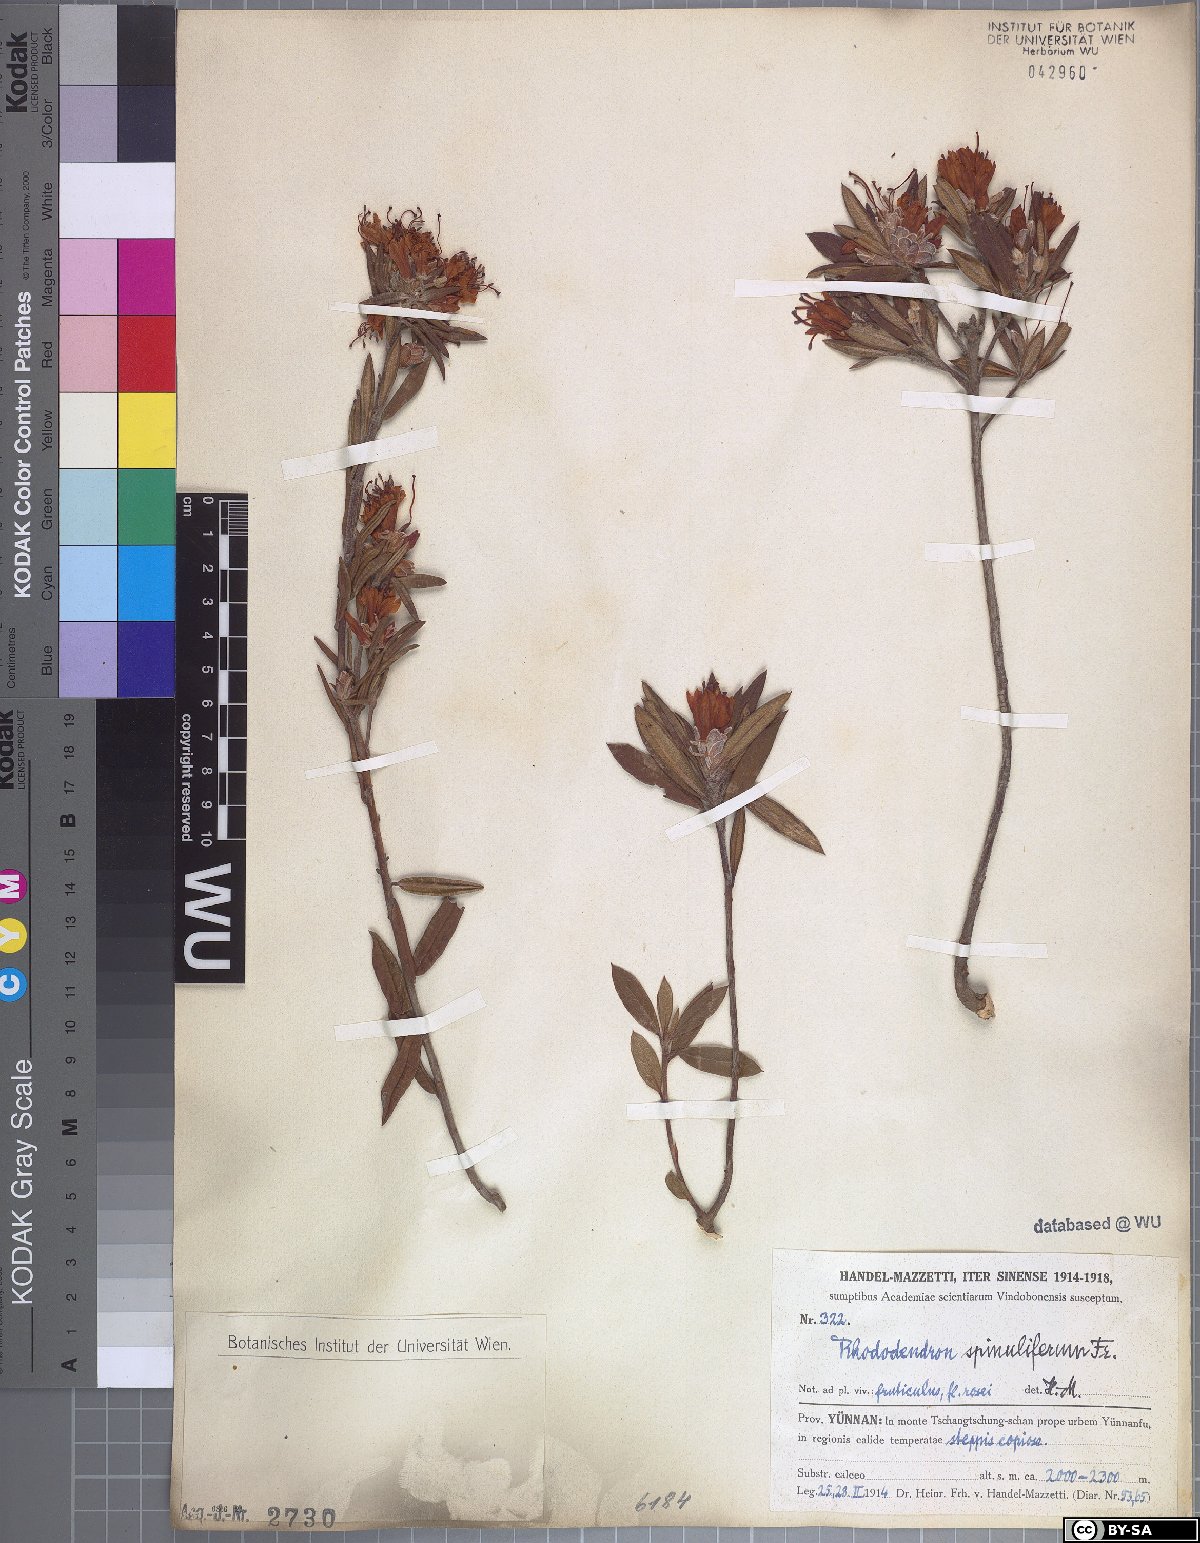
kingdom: Plantae
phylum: Tracheophyta
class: Magnoliopsida
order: Ericales
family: Ericaceae
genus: Rhododendron
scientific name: Rhododendron spinuliferum
